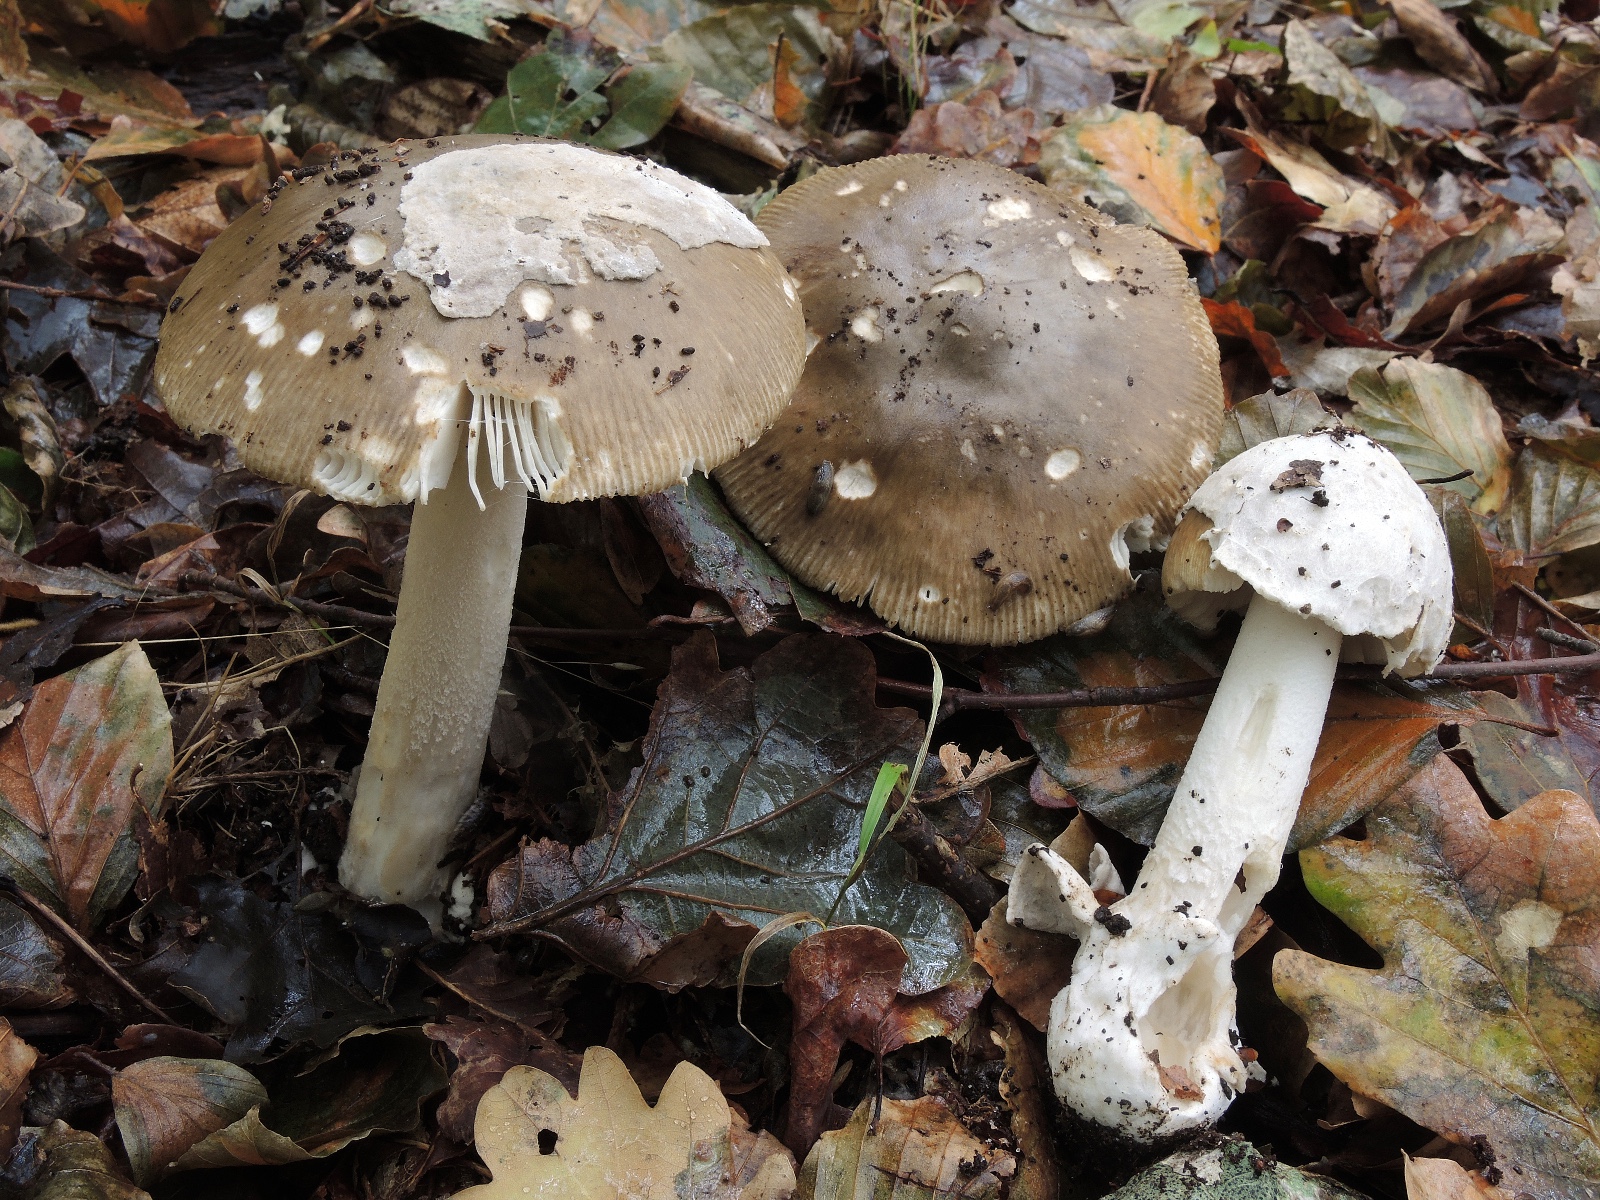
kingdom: Fungi
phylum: Basidiomycota
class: Agaricomycetes
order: Agaricales
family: Amanitaceae
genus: Amanita
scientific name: Amanita submembranacea
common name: gråspættet kam-fluesvamp
